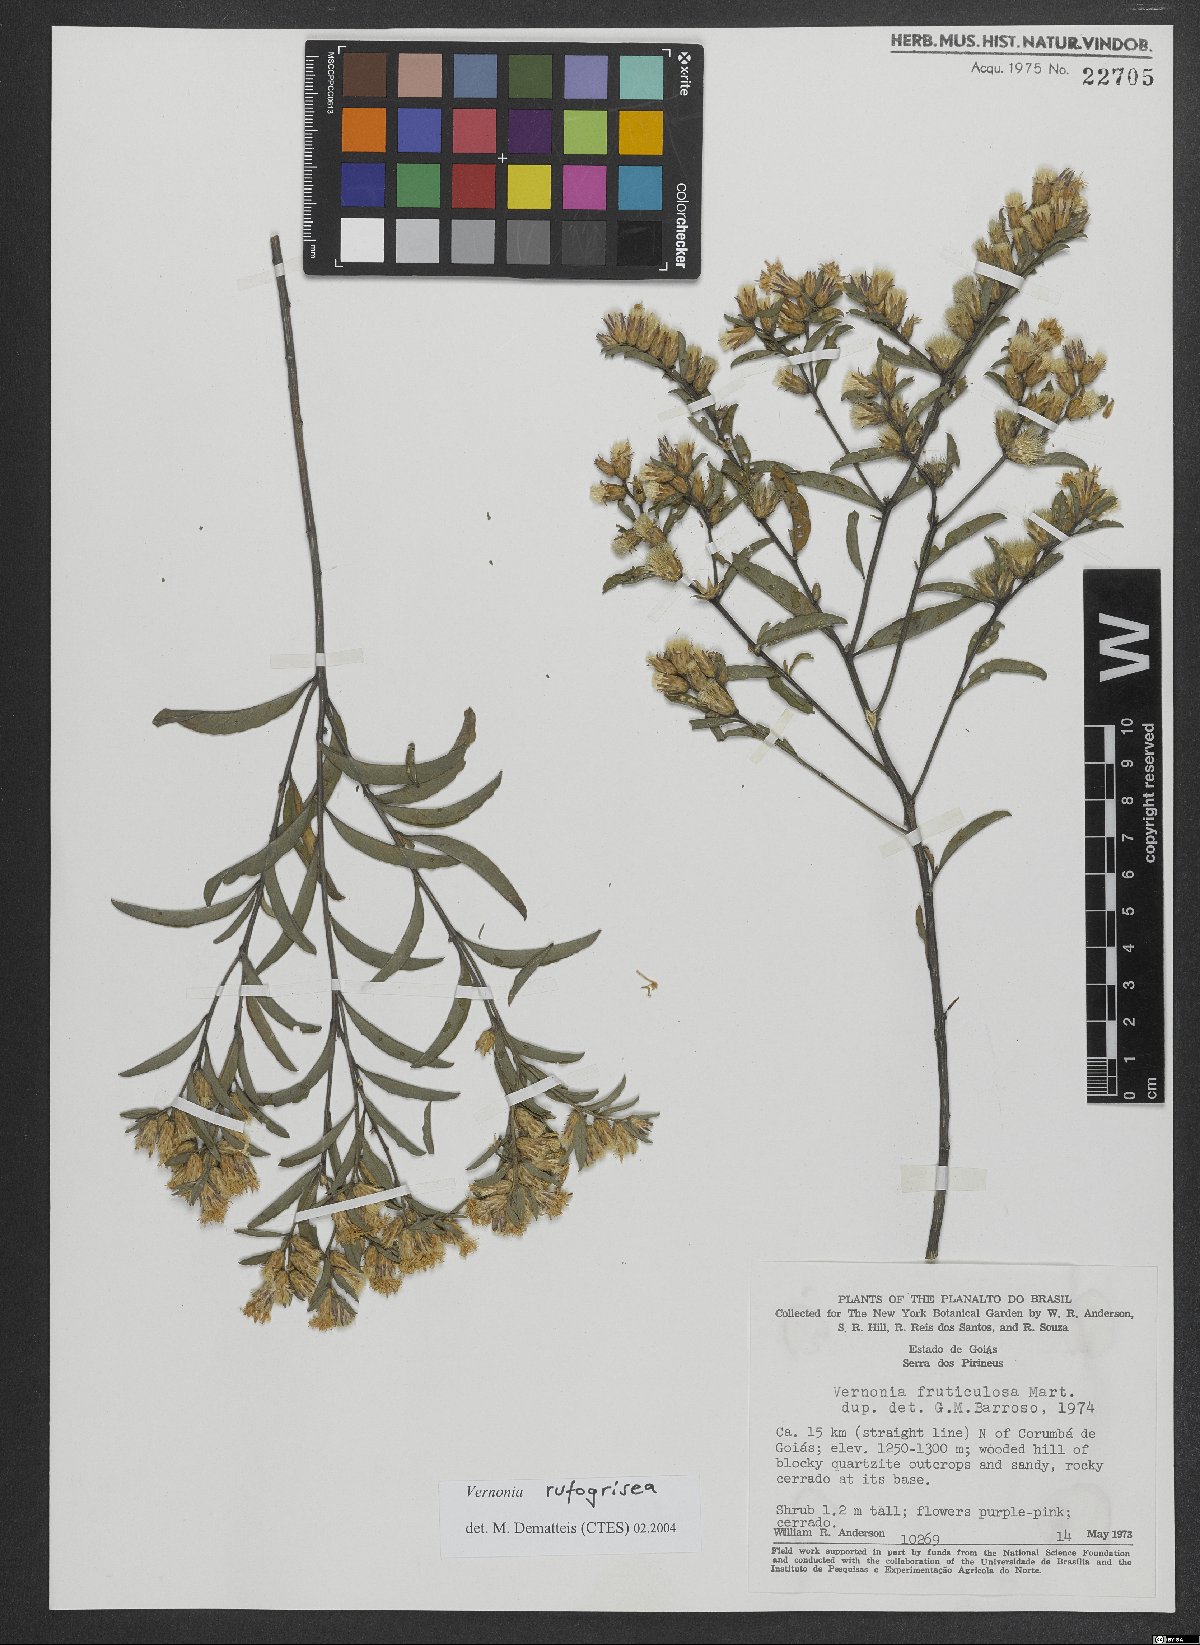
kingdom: Plantae
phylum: Tracheophyta
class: Magnoliopsida
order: Asterales
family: Asteraceae
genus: Lepidaploa
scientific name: Lepidaploa rufogrisea
